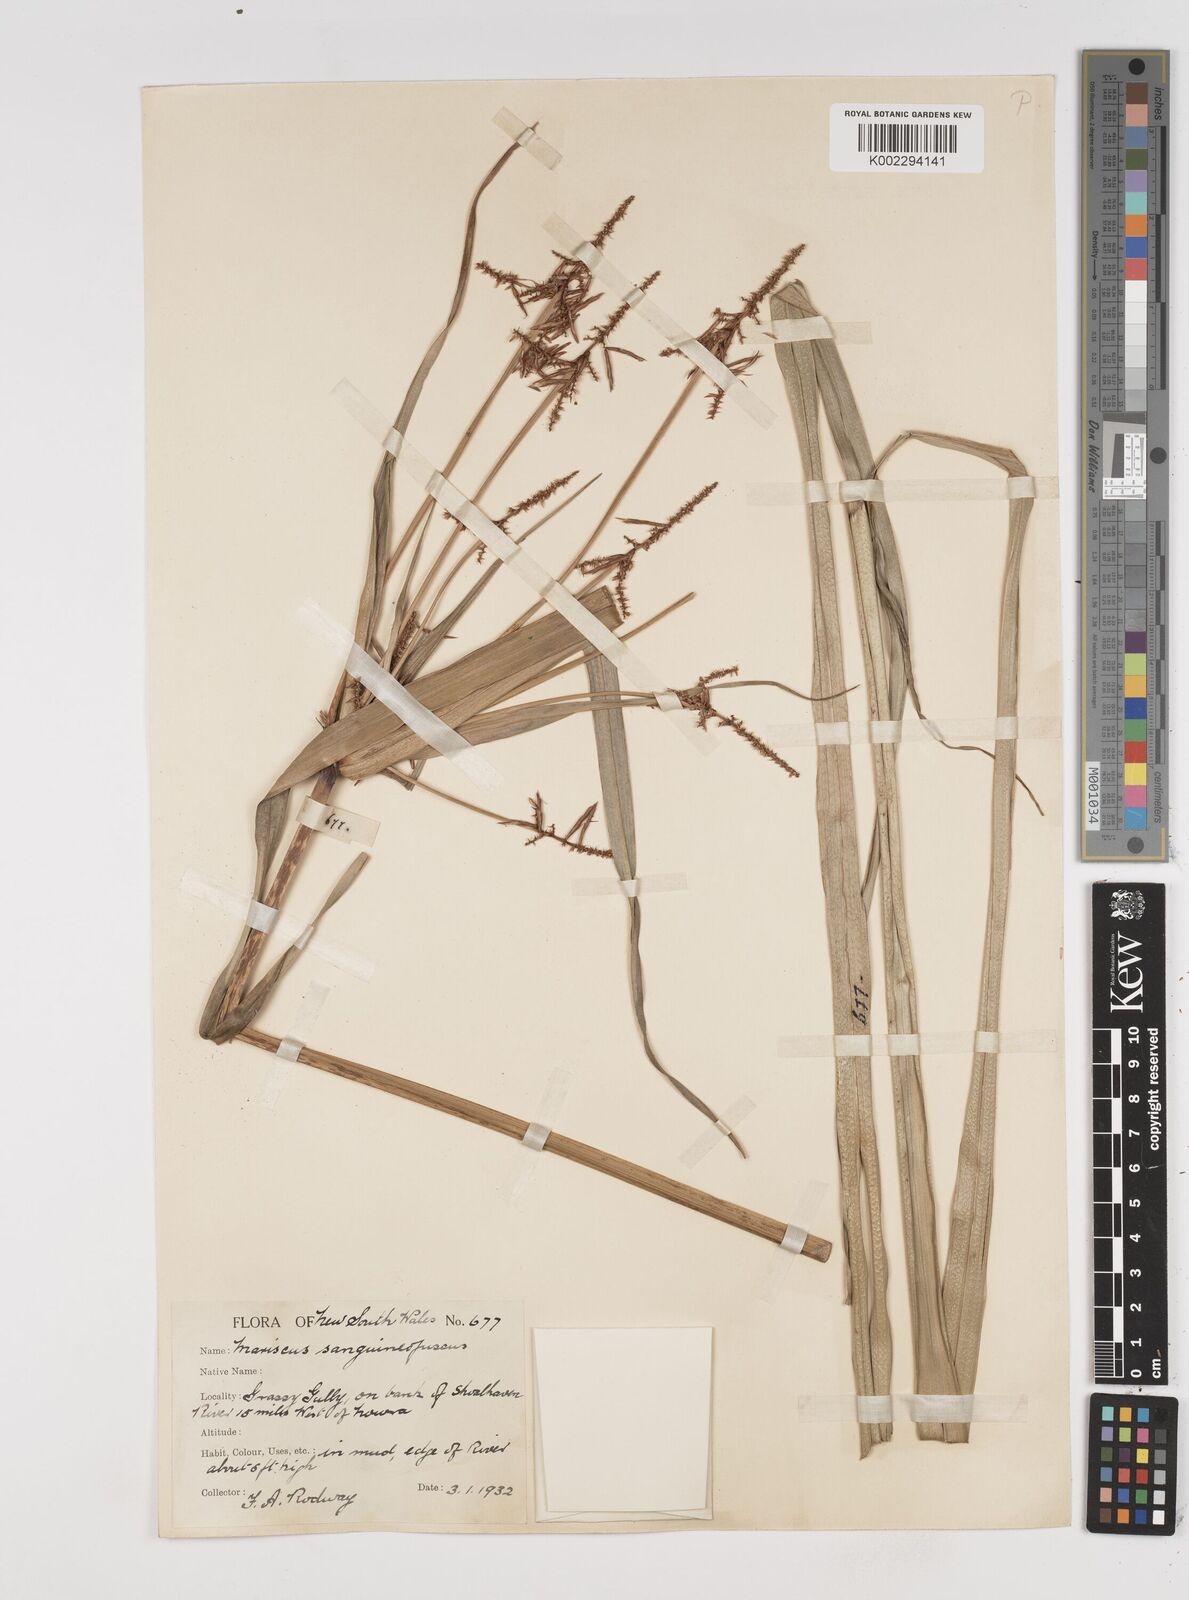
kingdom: Plantae
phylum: Tracheophyta
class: Liliopsida
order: Poales
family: Cyperaceae
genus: Cyperus
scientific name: Cyperus lucidus
